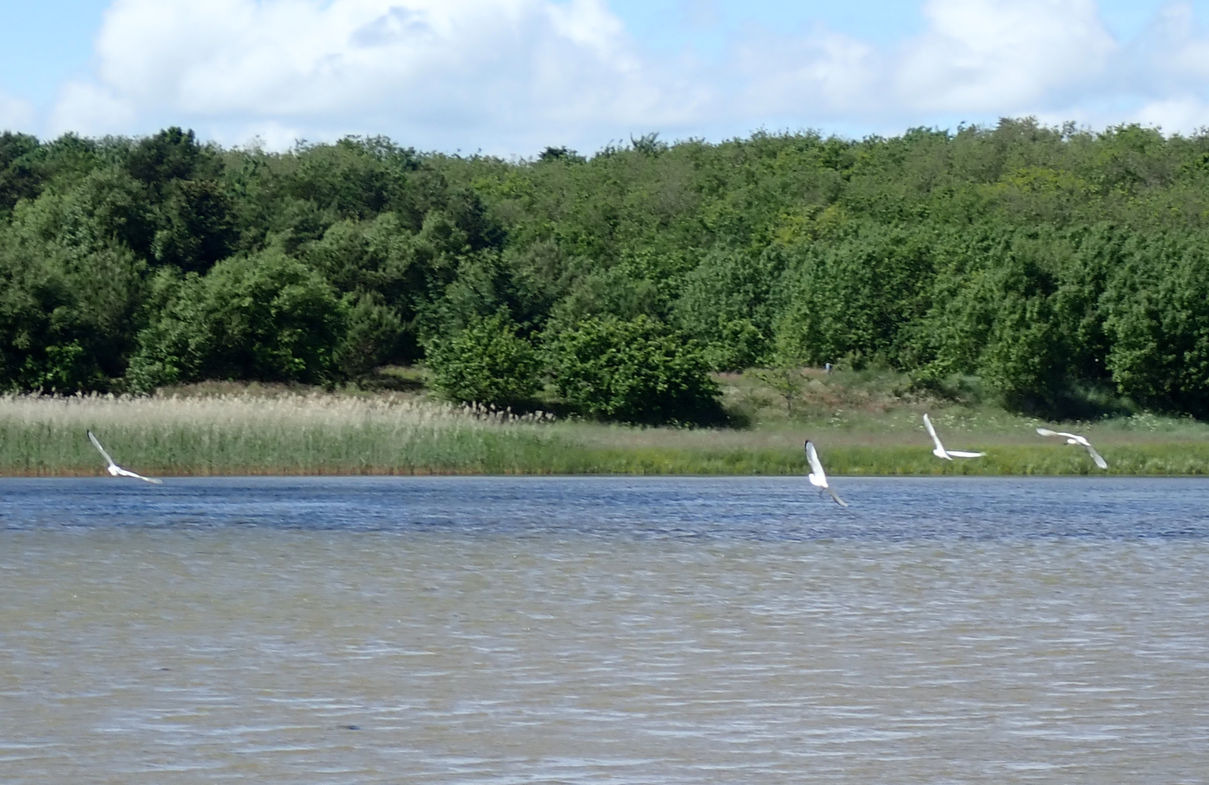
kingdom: Animalia
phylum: Chordata
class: Aves
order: Pelecaniformes
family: Threskiornithidae
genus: Platalea
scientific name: Platalea leucorodia
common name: Skestork
